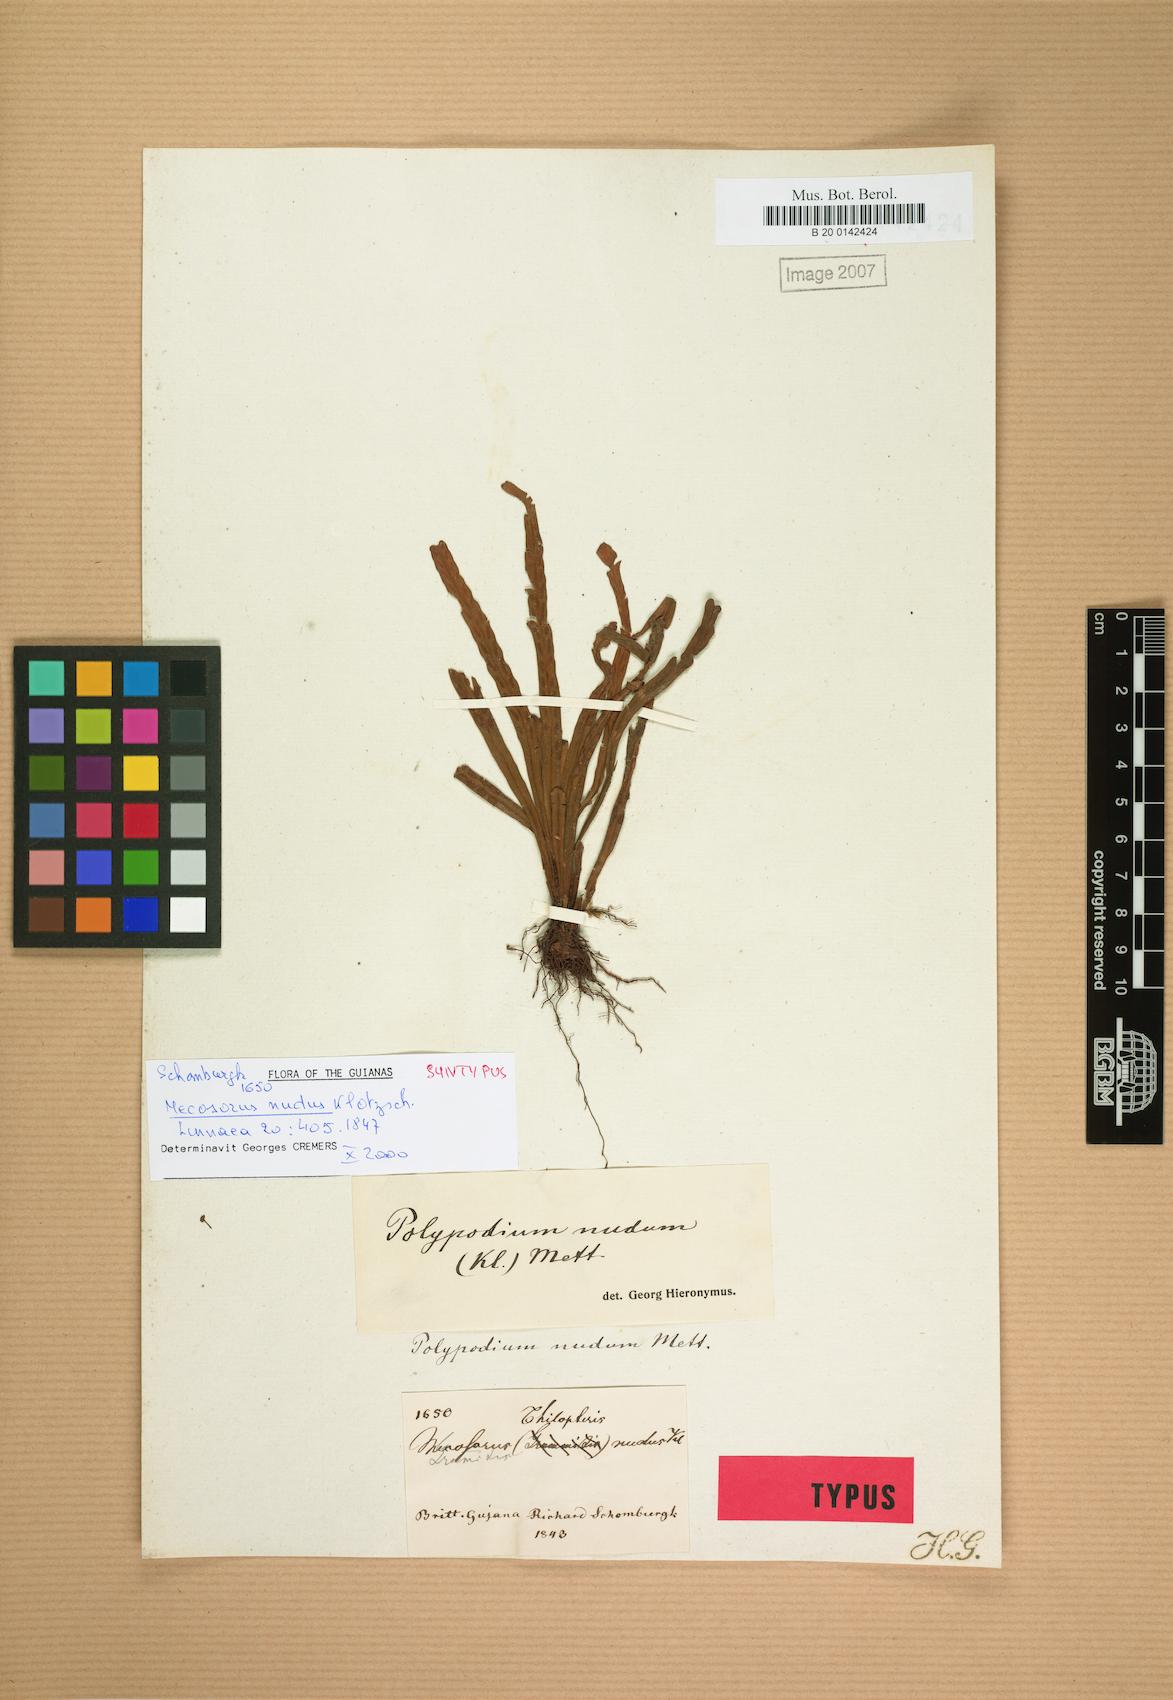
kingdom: Plantae
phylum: Tracheophyta
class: Polypodiopsida
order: Polypodiales
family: Polypodiaceae
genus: Lomaphlebia
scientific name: Lomaphlebia linearis
